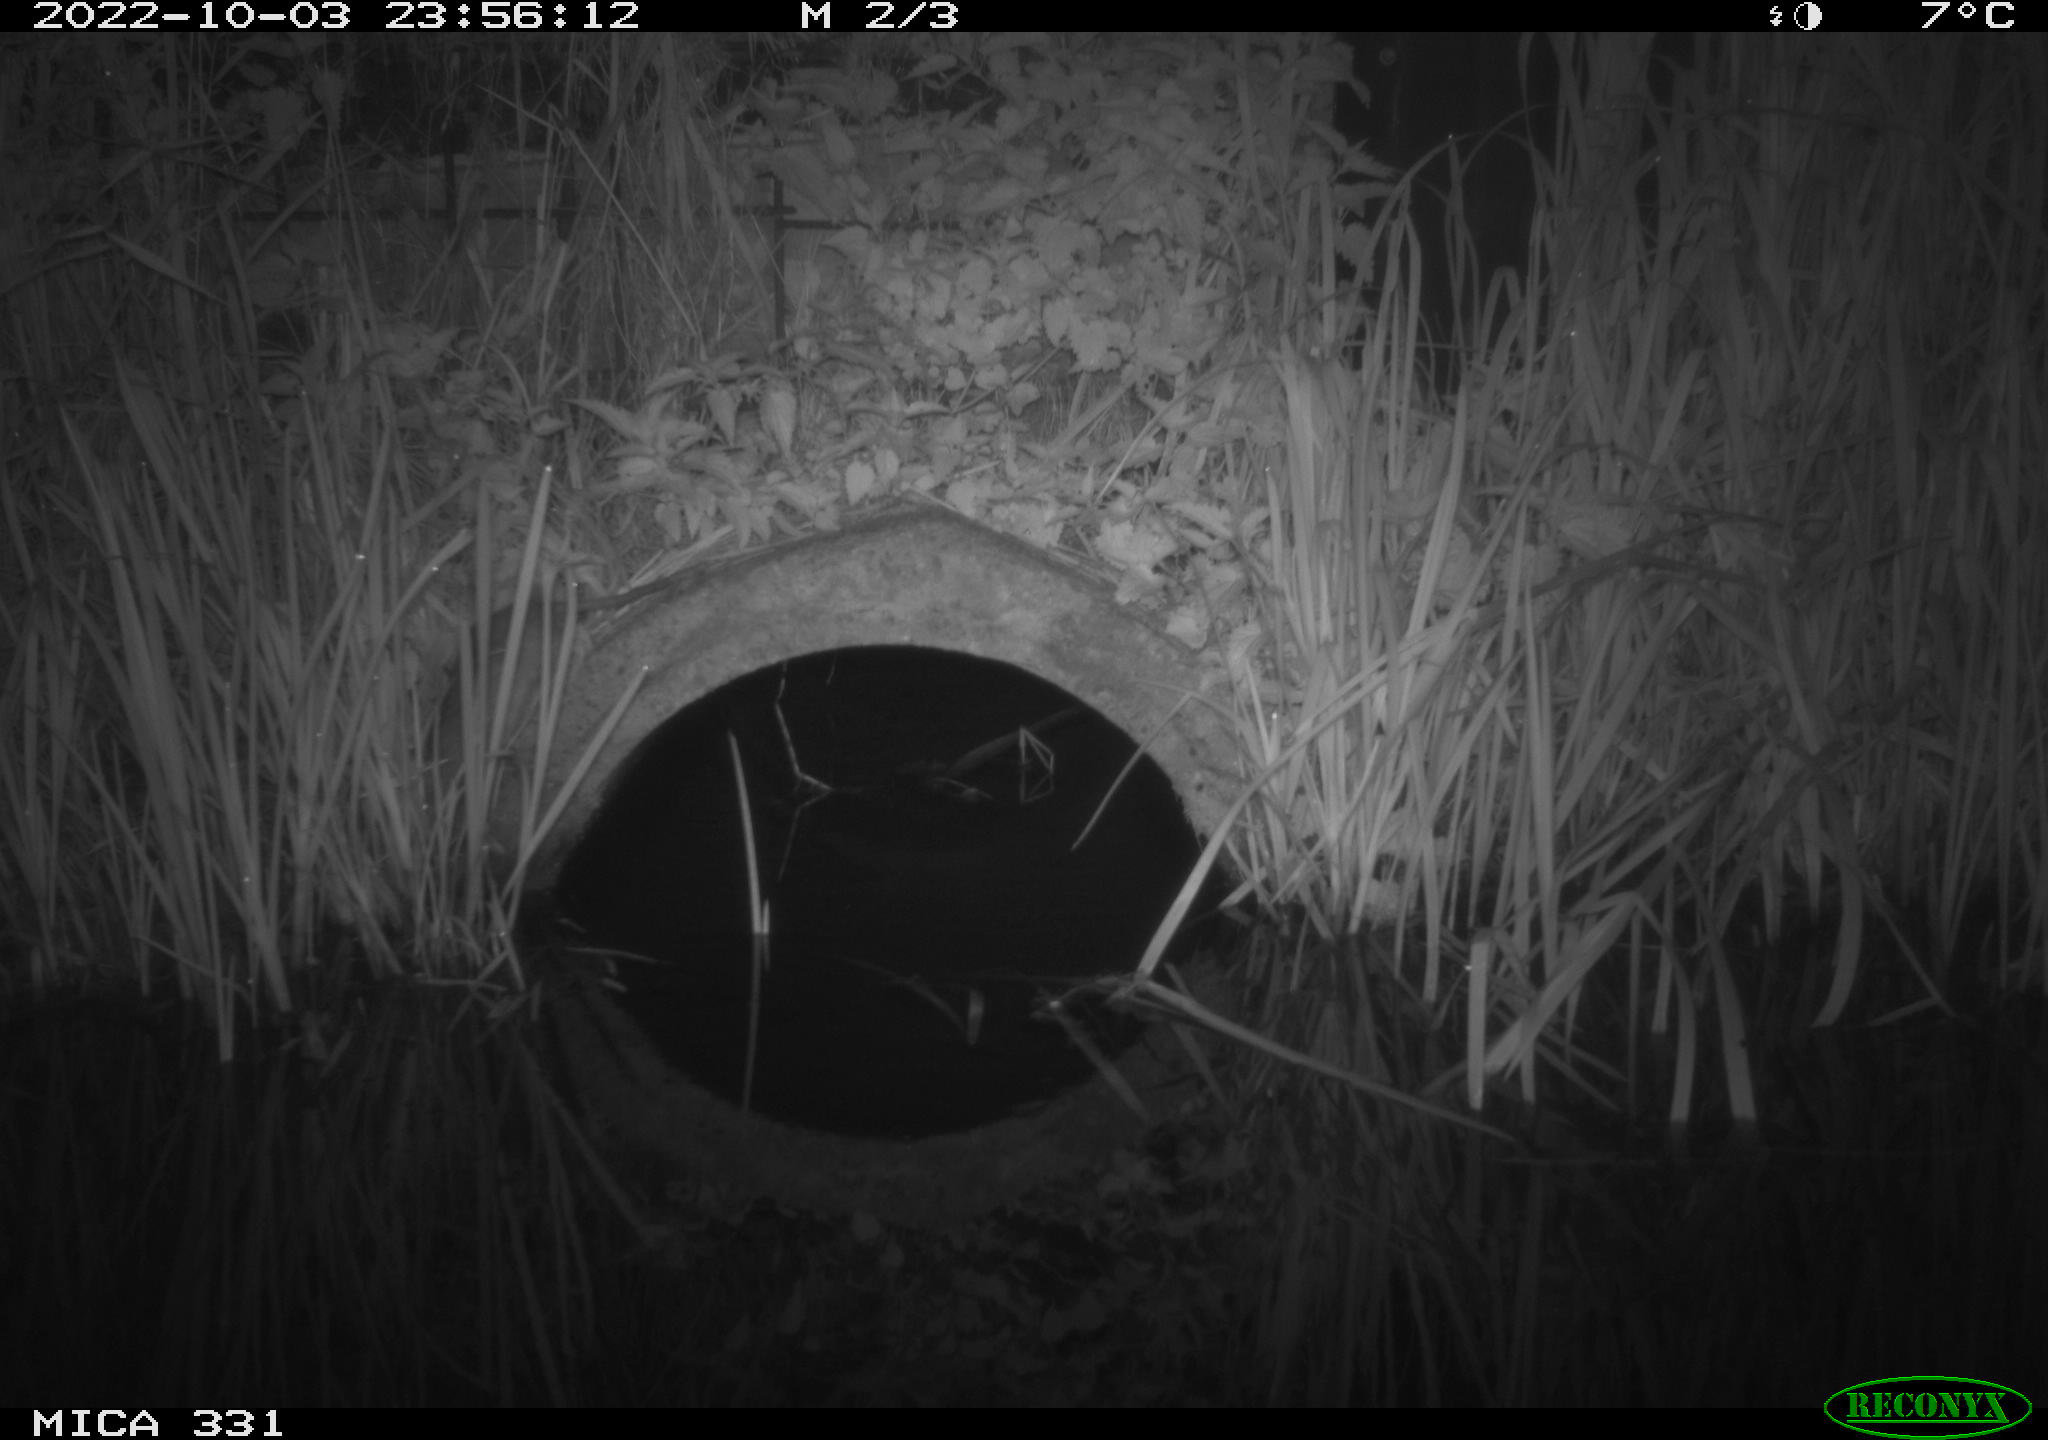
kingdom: Animalia
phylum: Chordata
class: Mammalia
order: Rodentia
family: Muridae
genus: Rattus
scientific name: Rattus norvegicus
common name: Brown rat
